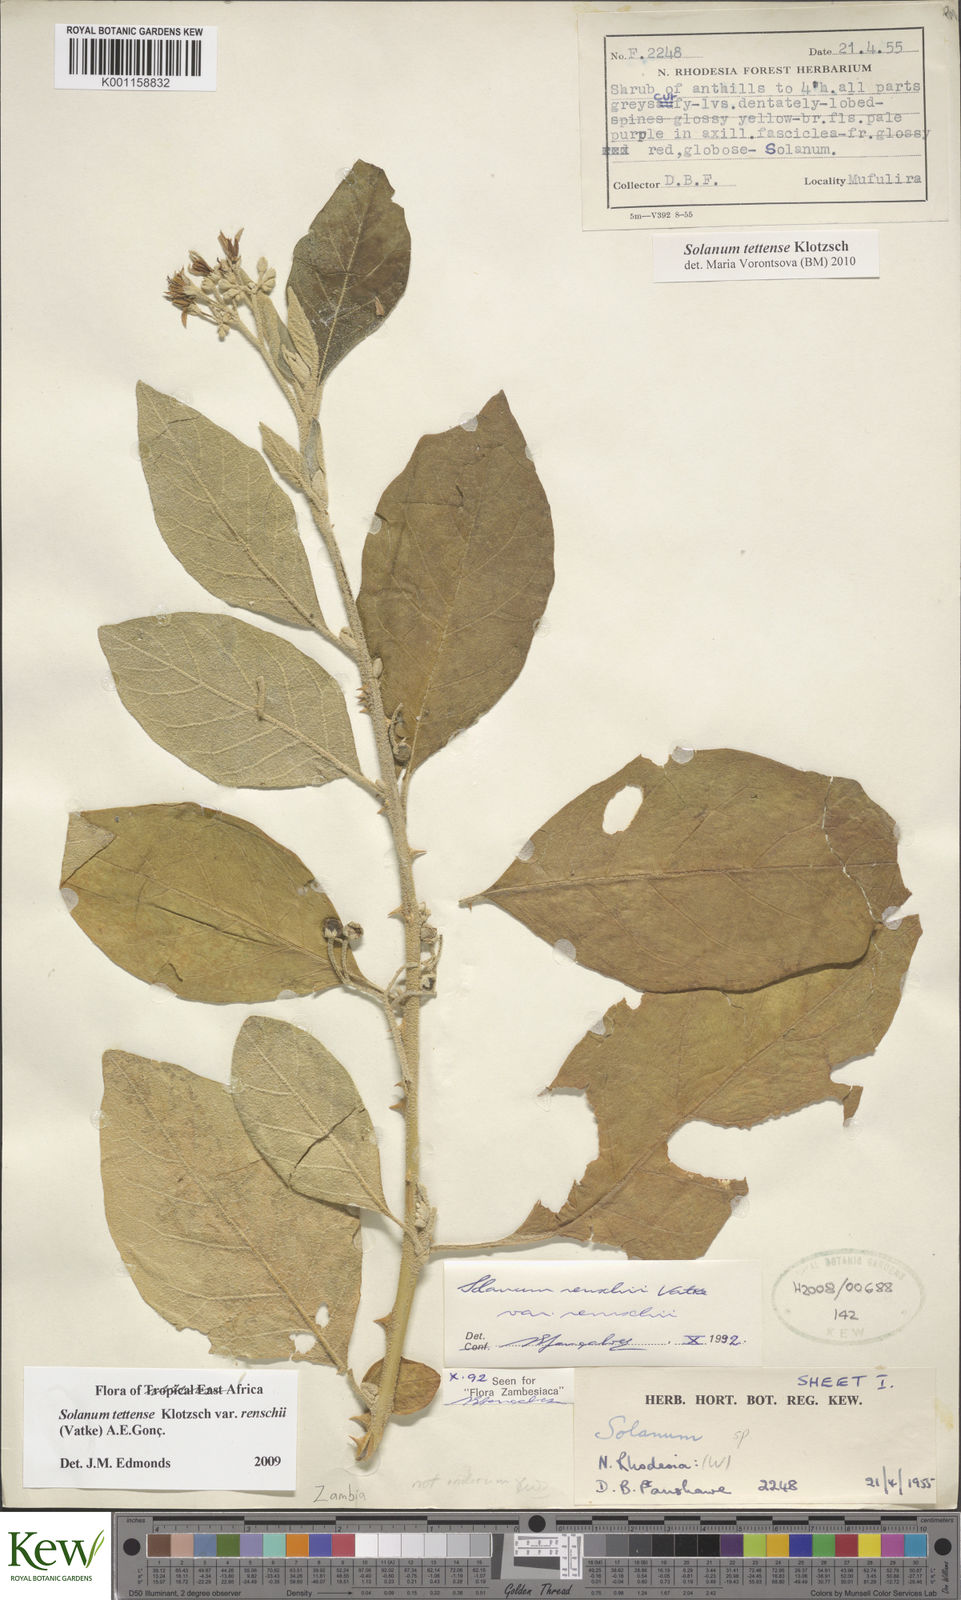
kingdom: Plantae
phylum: Tracheophyta
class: Magnoliopsida
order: Solanales
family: Solanaceae
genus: Solanum
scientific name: Solanum tettense
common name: Mozambique bitter apple
